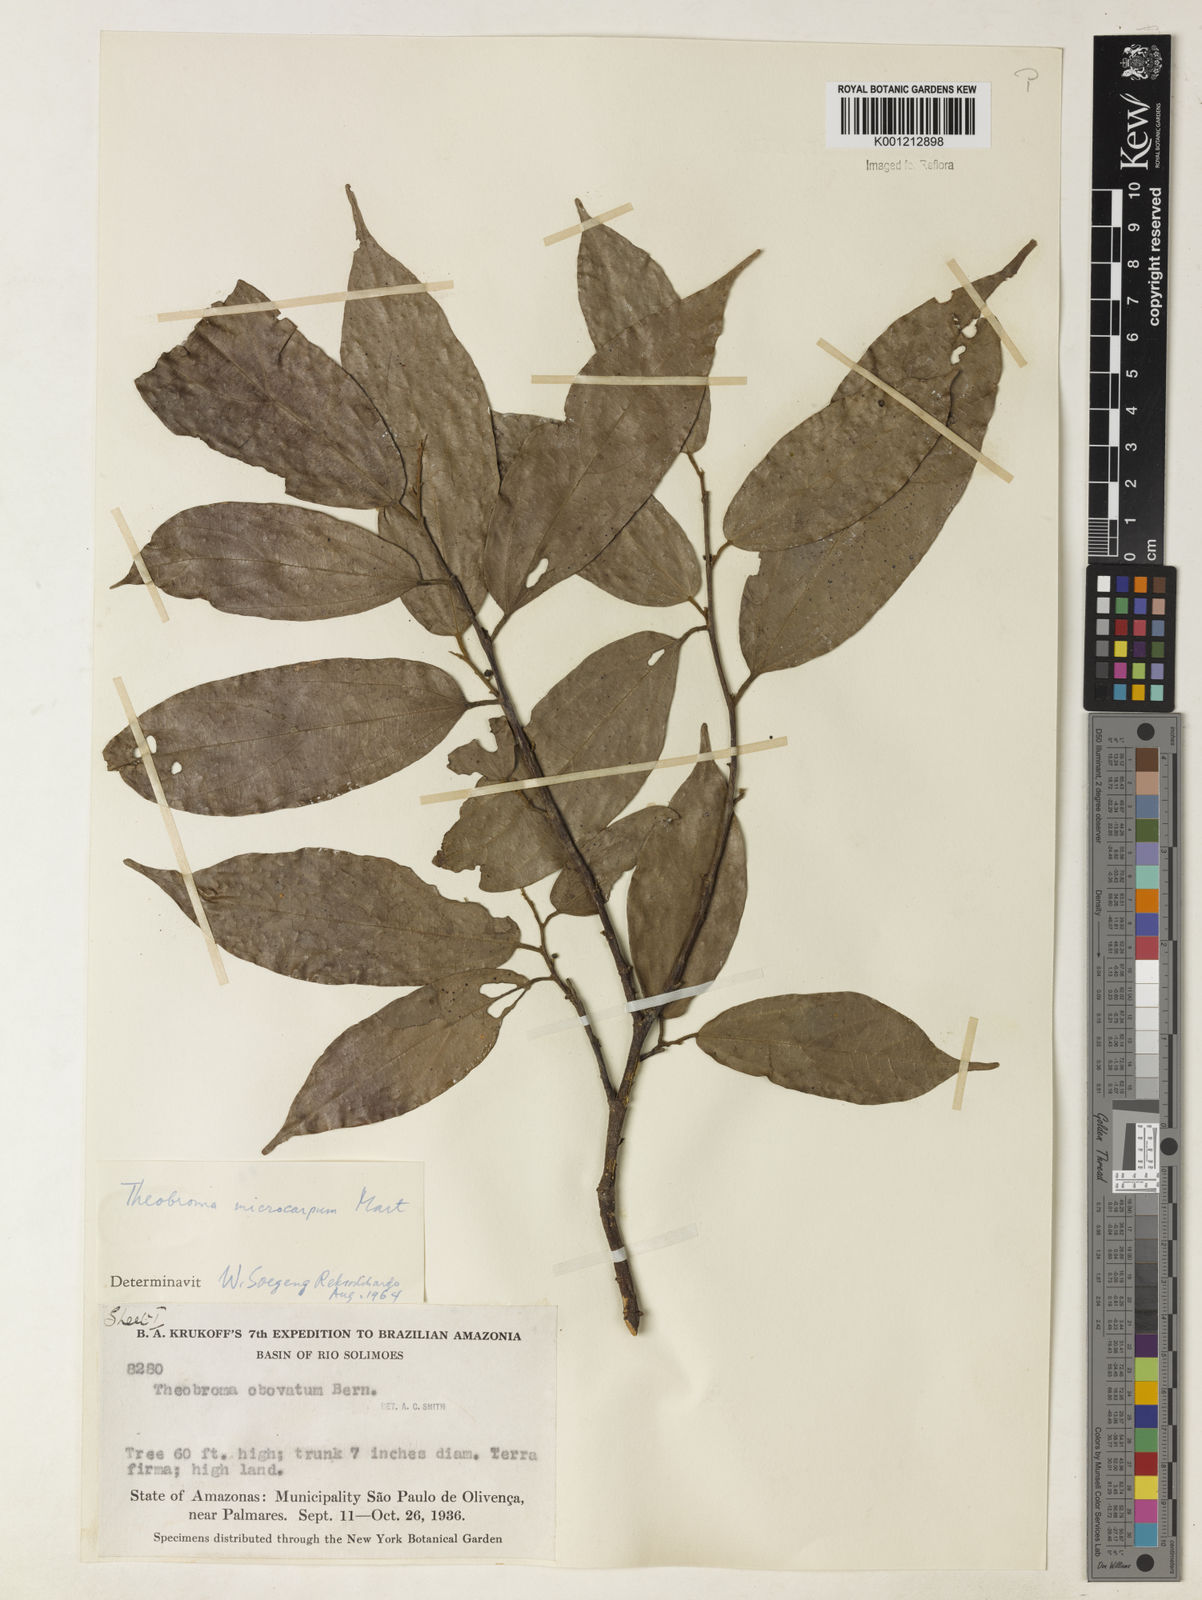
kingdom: Plantae
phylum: Tracheophyta
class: Magnoliopsida
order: Malvales
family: Malvaceae
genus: Theobroma
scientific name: Theobroma obovatum
